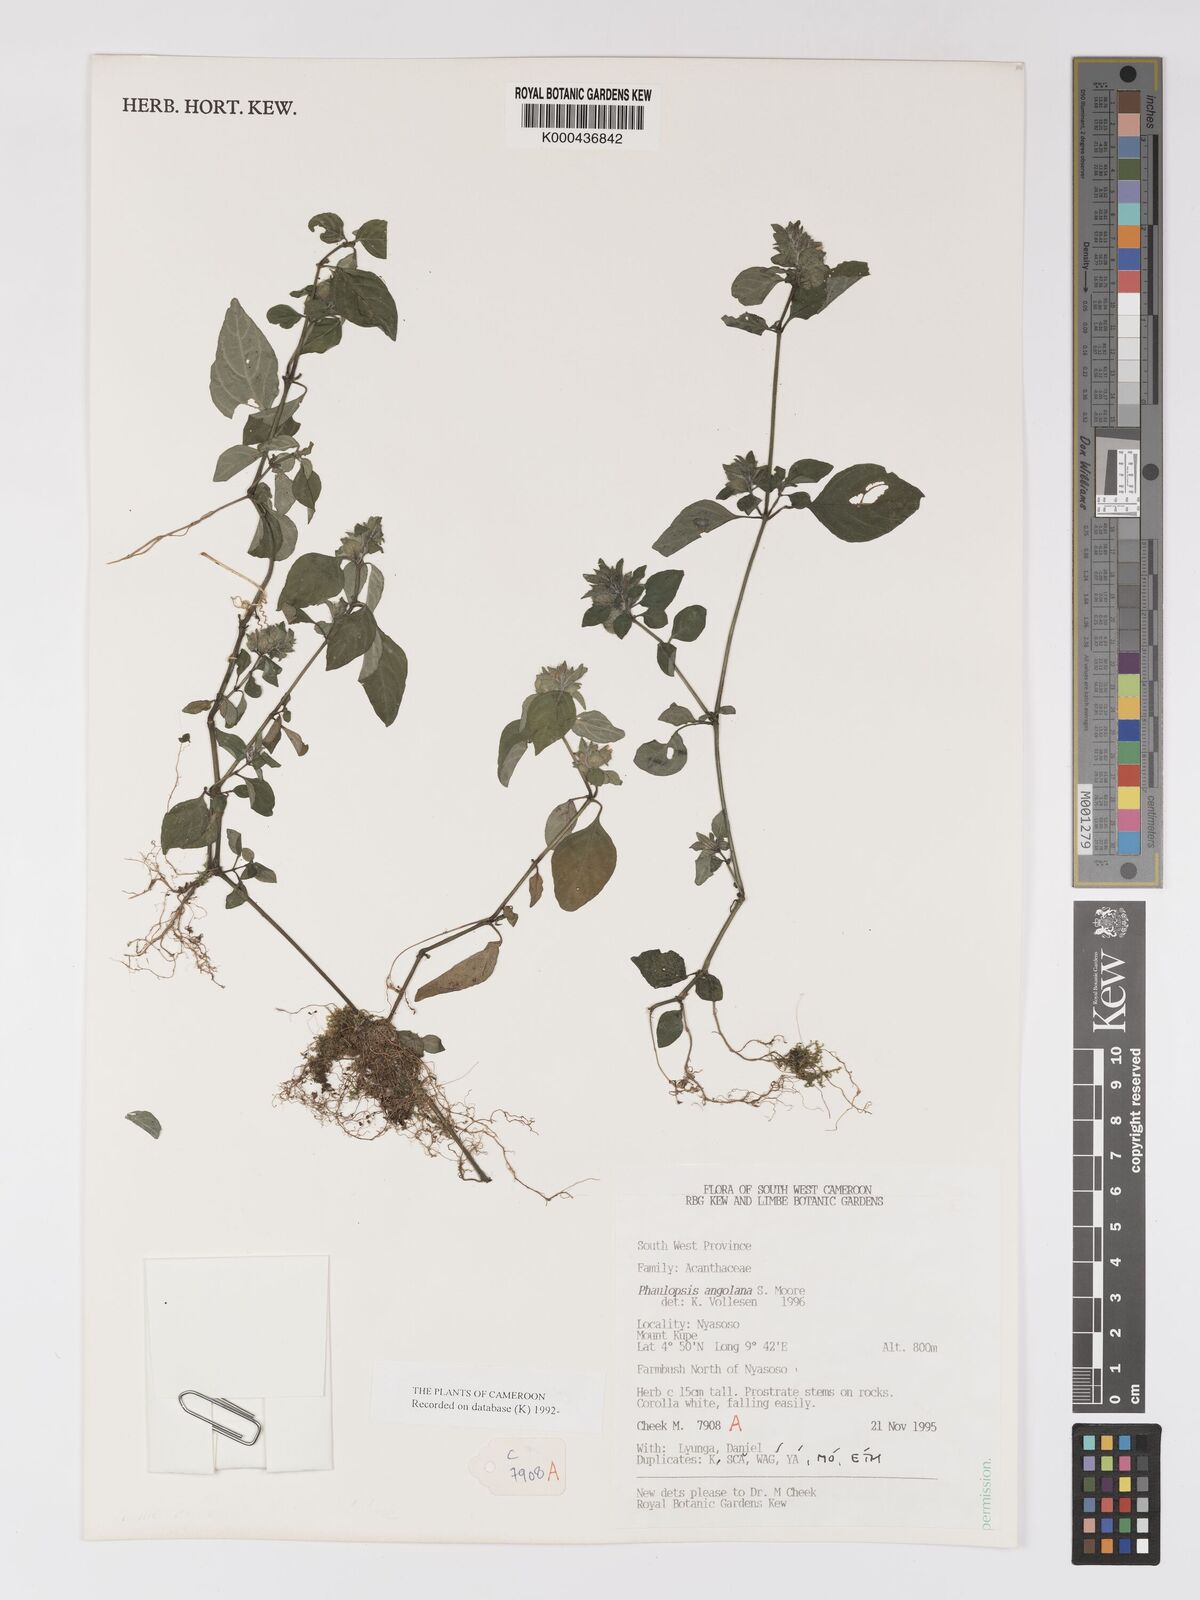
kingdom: Plantae
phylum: Tracheophyta
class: Magnoliopsida
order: Lamiales
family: Acanthaceae
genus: Phaulopsis
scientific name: Phaulopsis angolana
